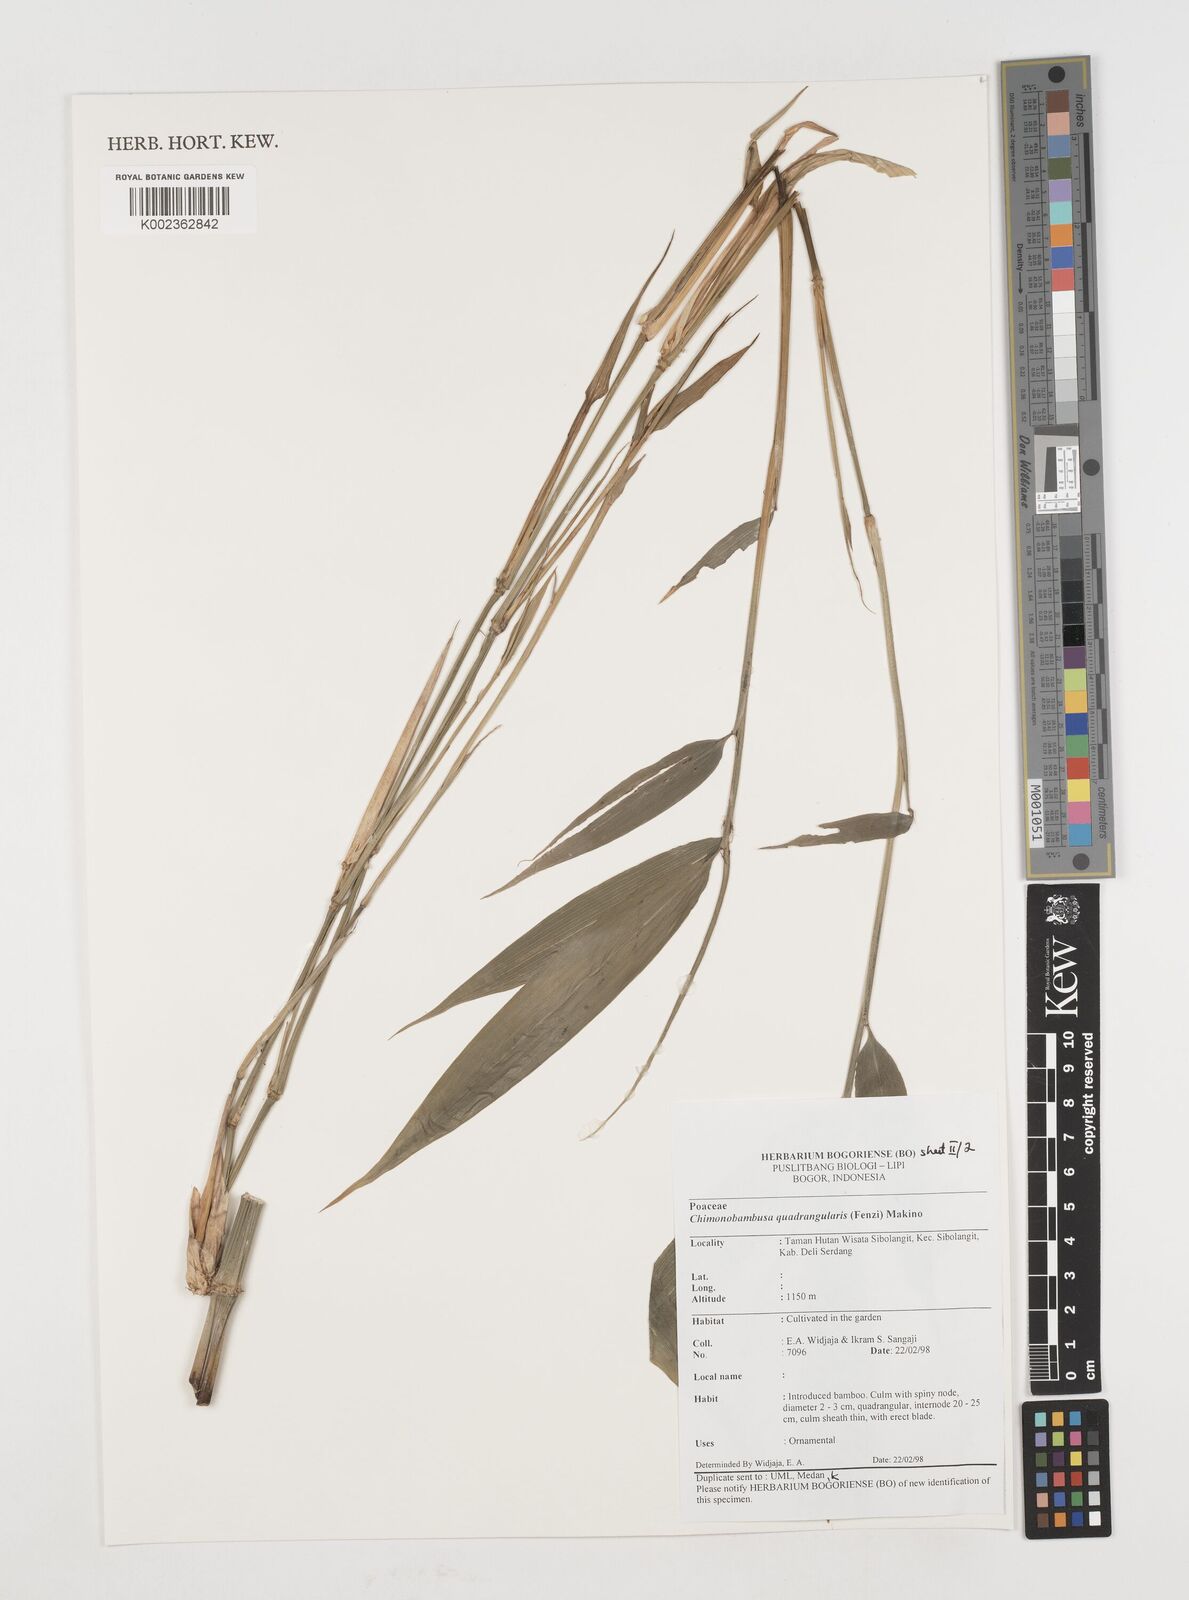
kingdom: Plantae
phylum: Tracheophyta
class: Liliopsida
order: Poales
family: Poaceae
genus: Chimonobambusa
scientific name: Chimonobambusa quadrangularis
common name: Square-stemmed bamboo
